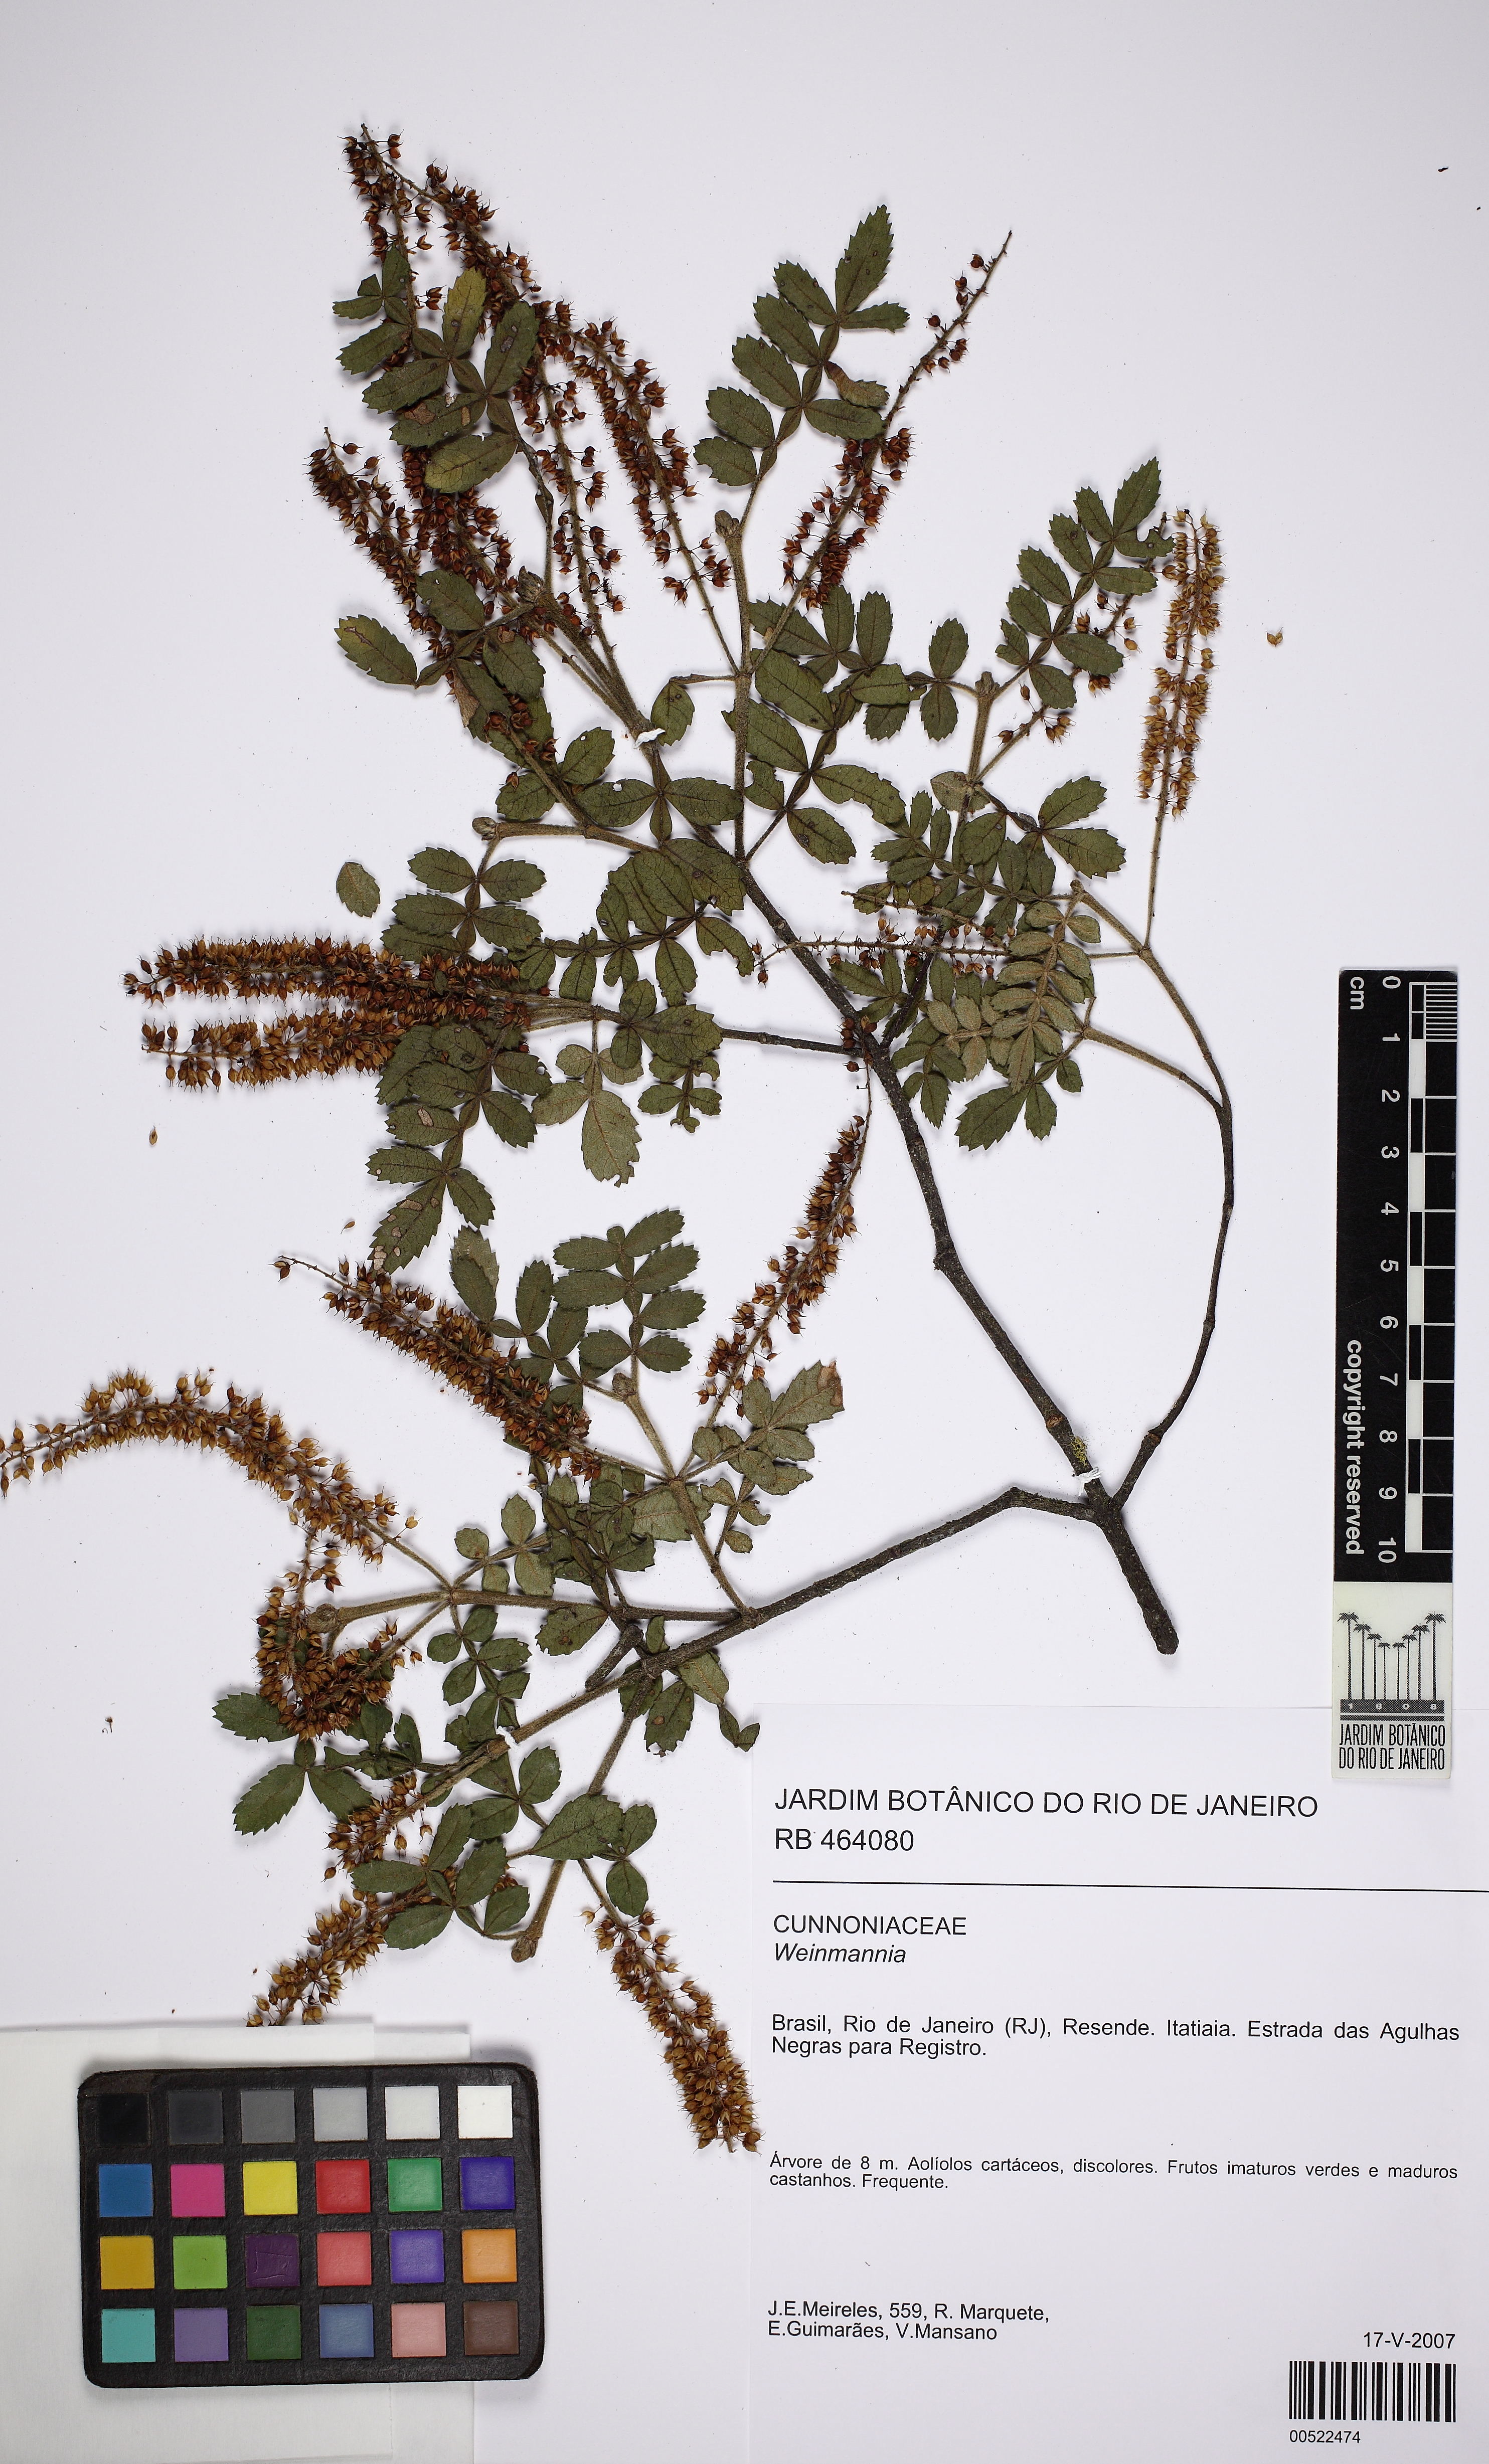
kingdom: Plantae
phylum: Tracheophyta
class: Magnoliopsida
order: Oxalidales
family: Cunoniaceae
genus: Weinmannia
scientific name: Weinmannia
